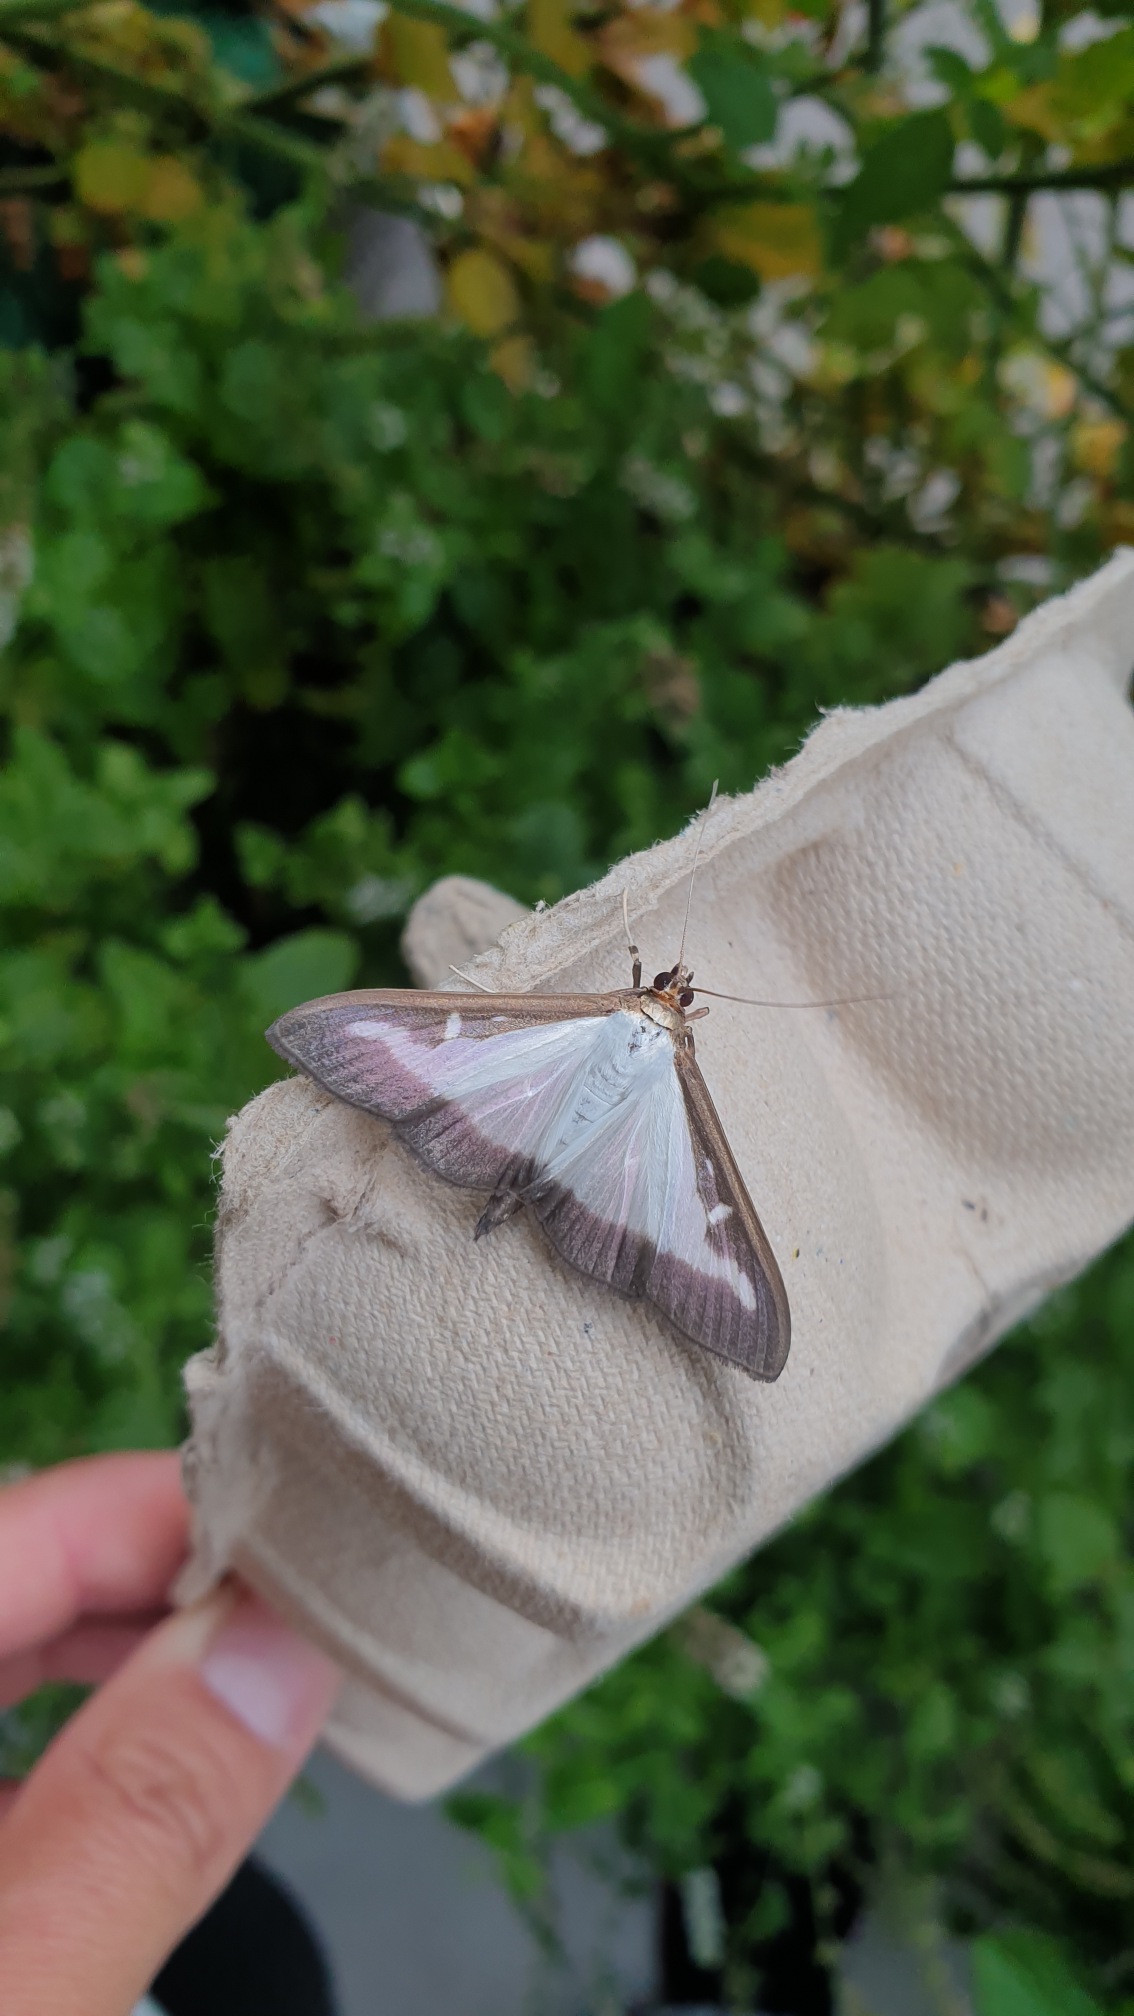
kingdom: Animalia
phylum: Arthropoda
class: Insecta
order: Lepidoptera
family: Crambidae
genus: Cydalima
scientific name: Cydalima perspectalis
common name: Buksbomhalvmøl
